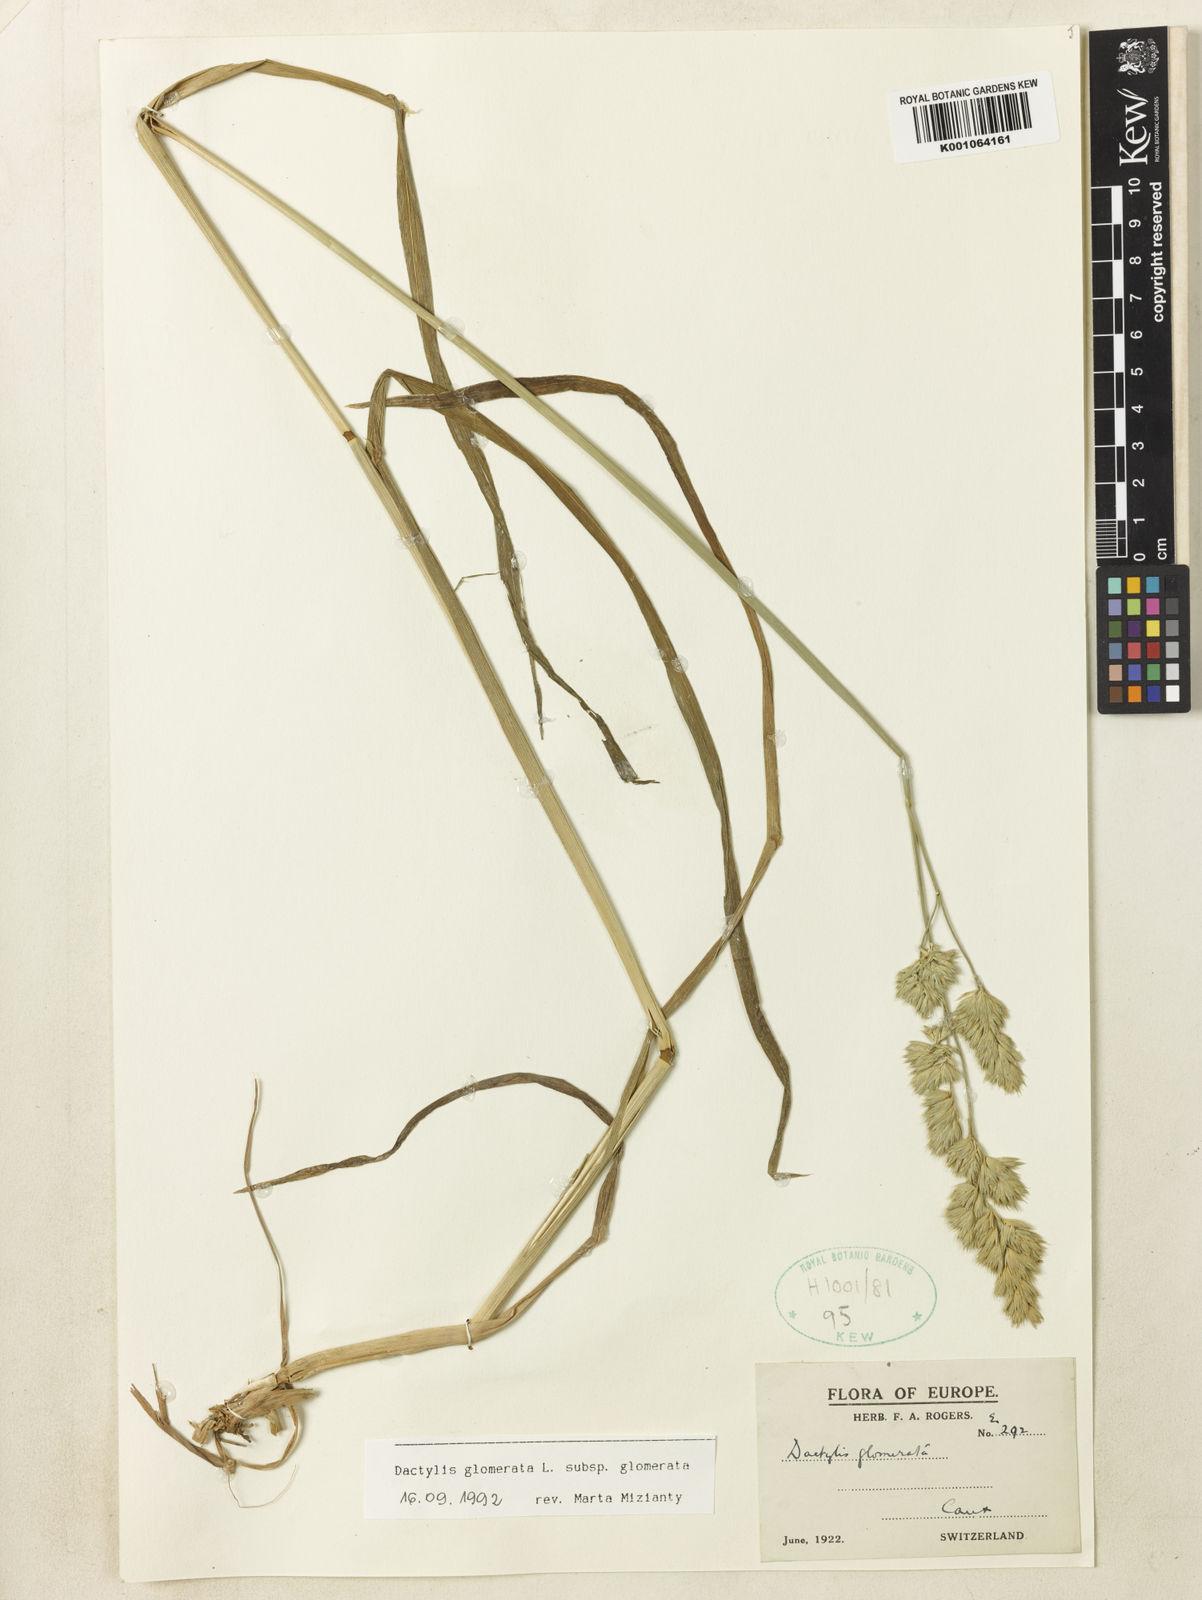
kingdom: Plantae
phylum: Tracheophyta
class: Liliopsida
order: Poales
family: Poaceae
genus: Dactylis
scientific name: Dactylis glomerata
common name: Orchardgrass
